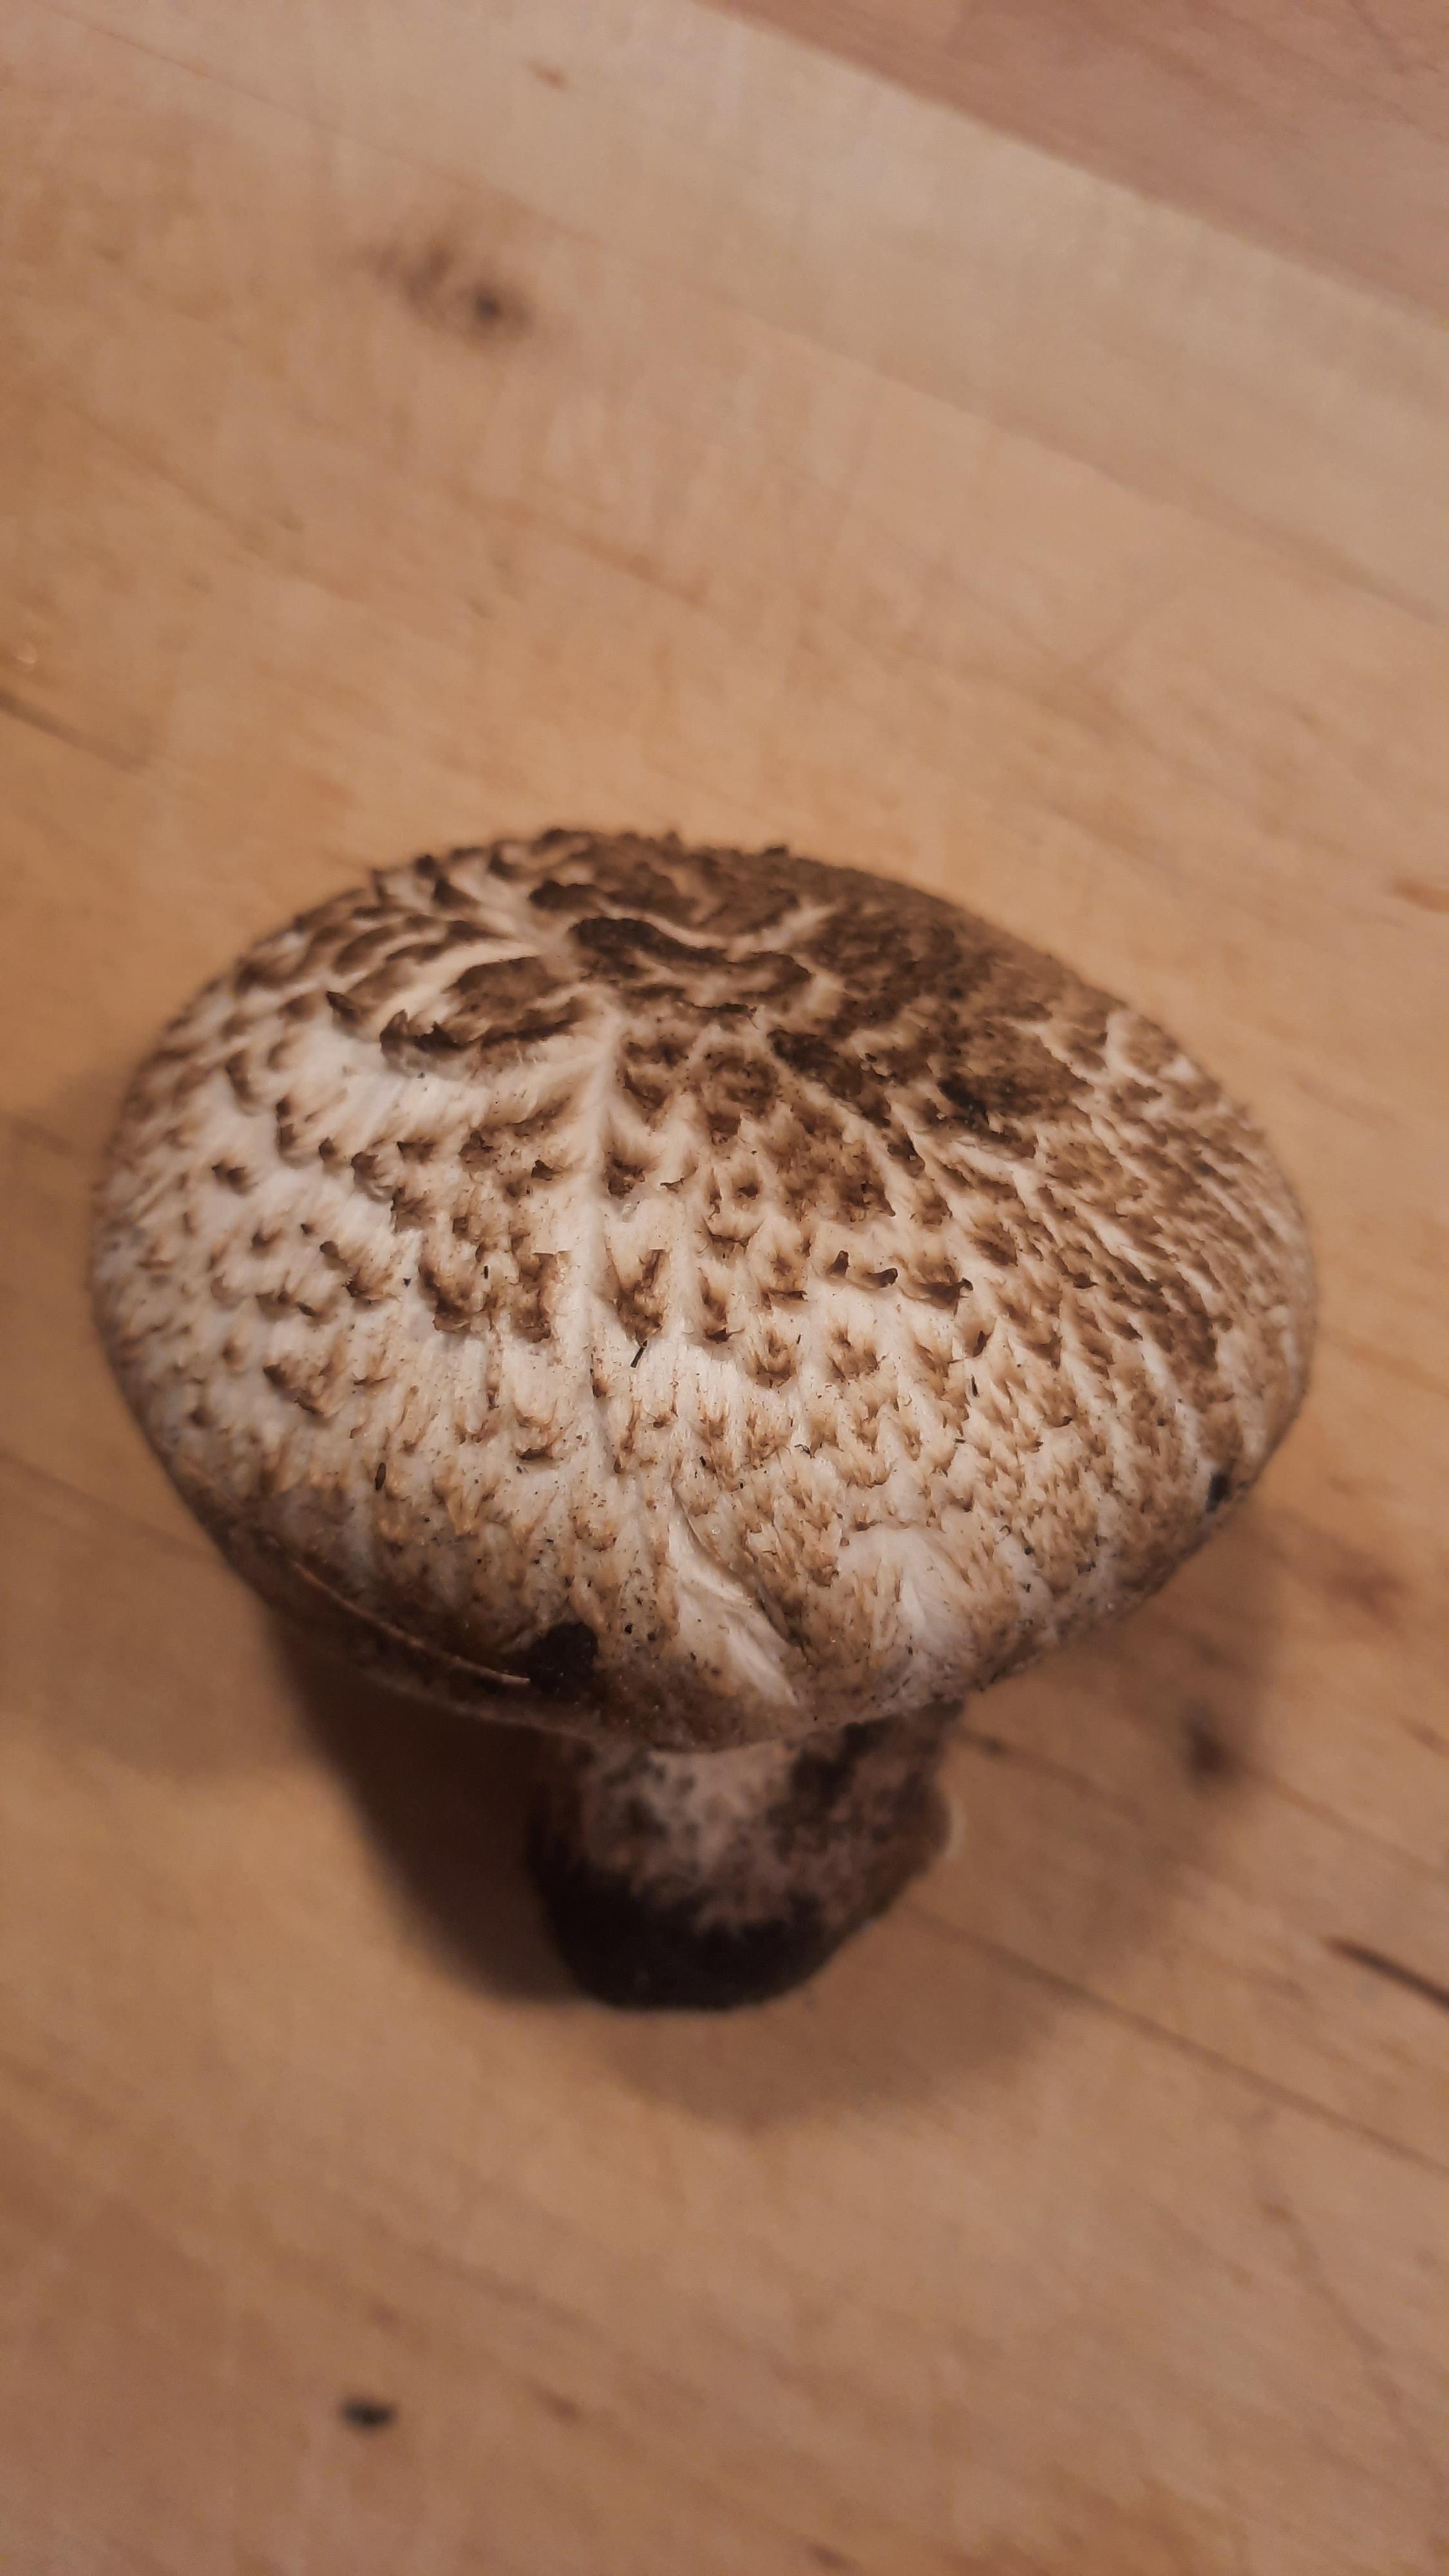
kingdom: Fungi
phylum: Basidiomycota
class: Agaricomycetes
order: Agaricales
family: Agaricaceae
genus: Agaricus
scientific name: Agaricus
